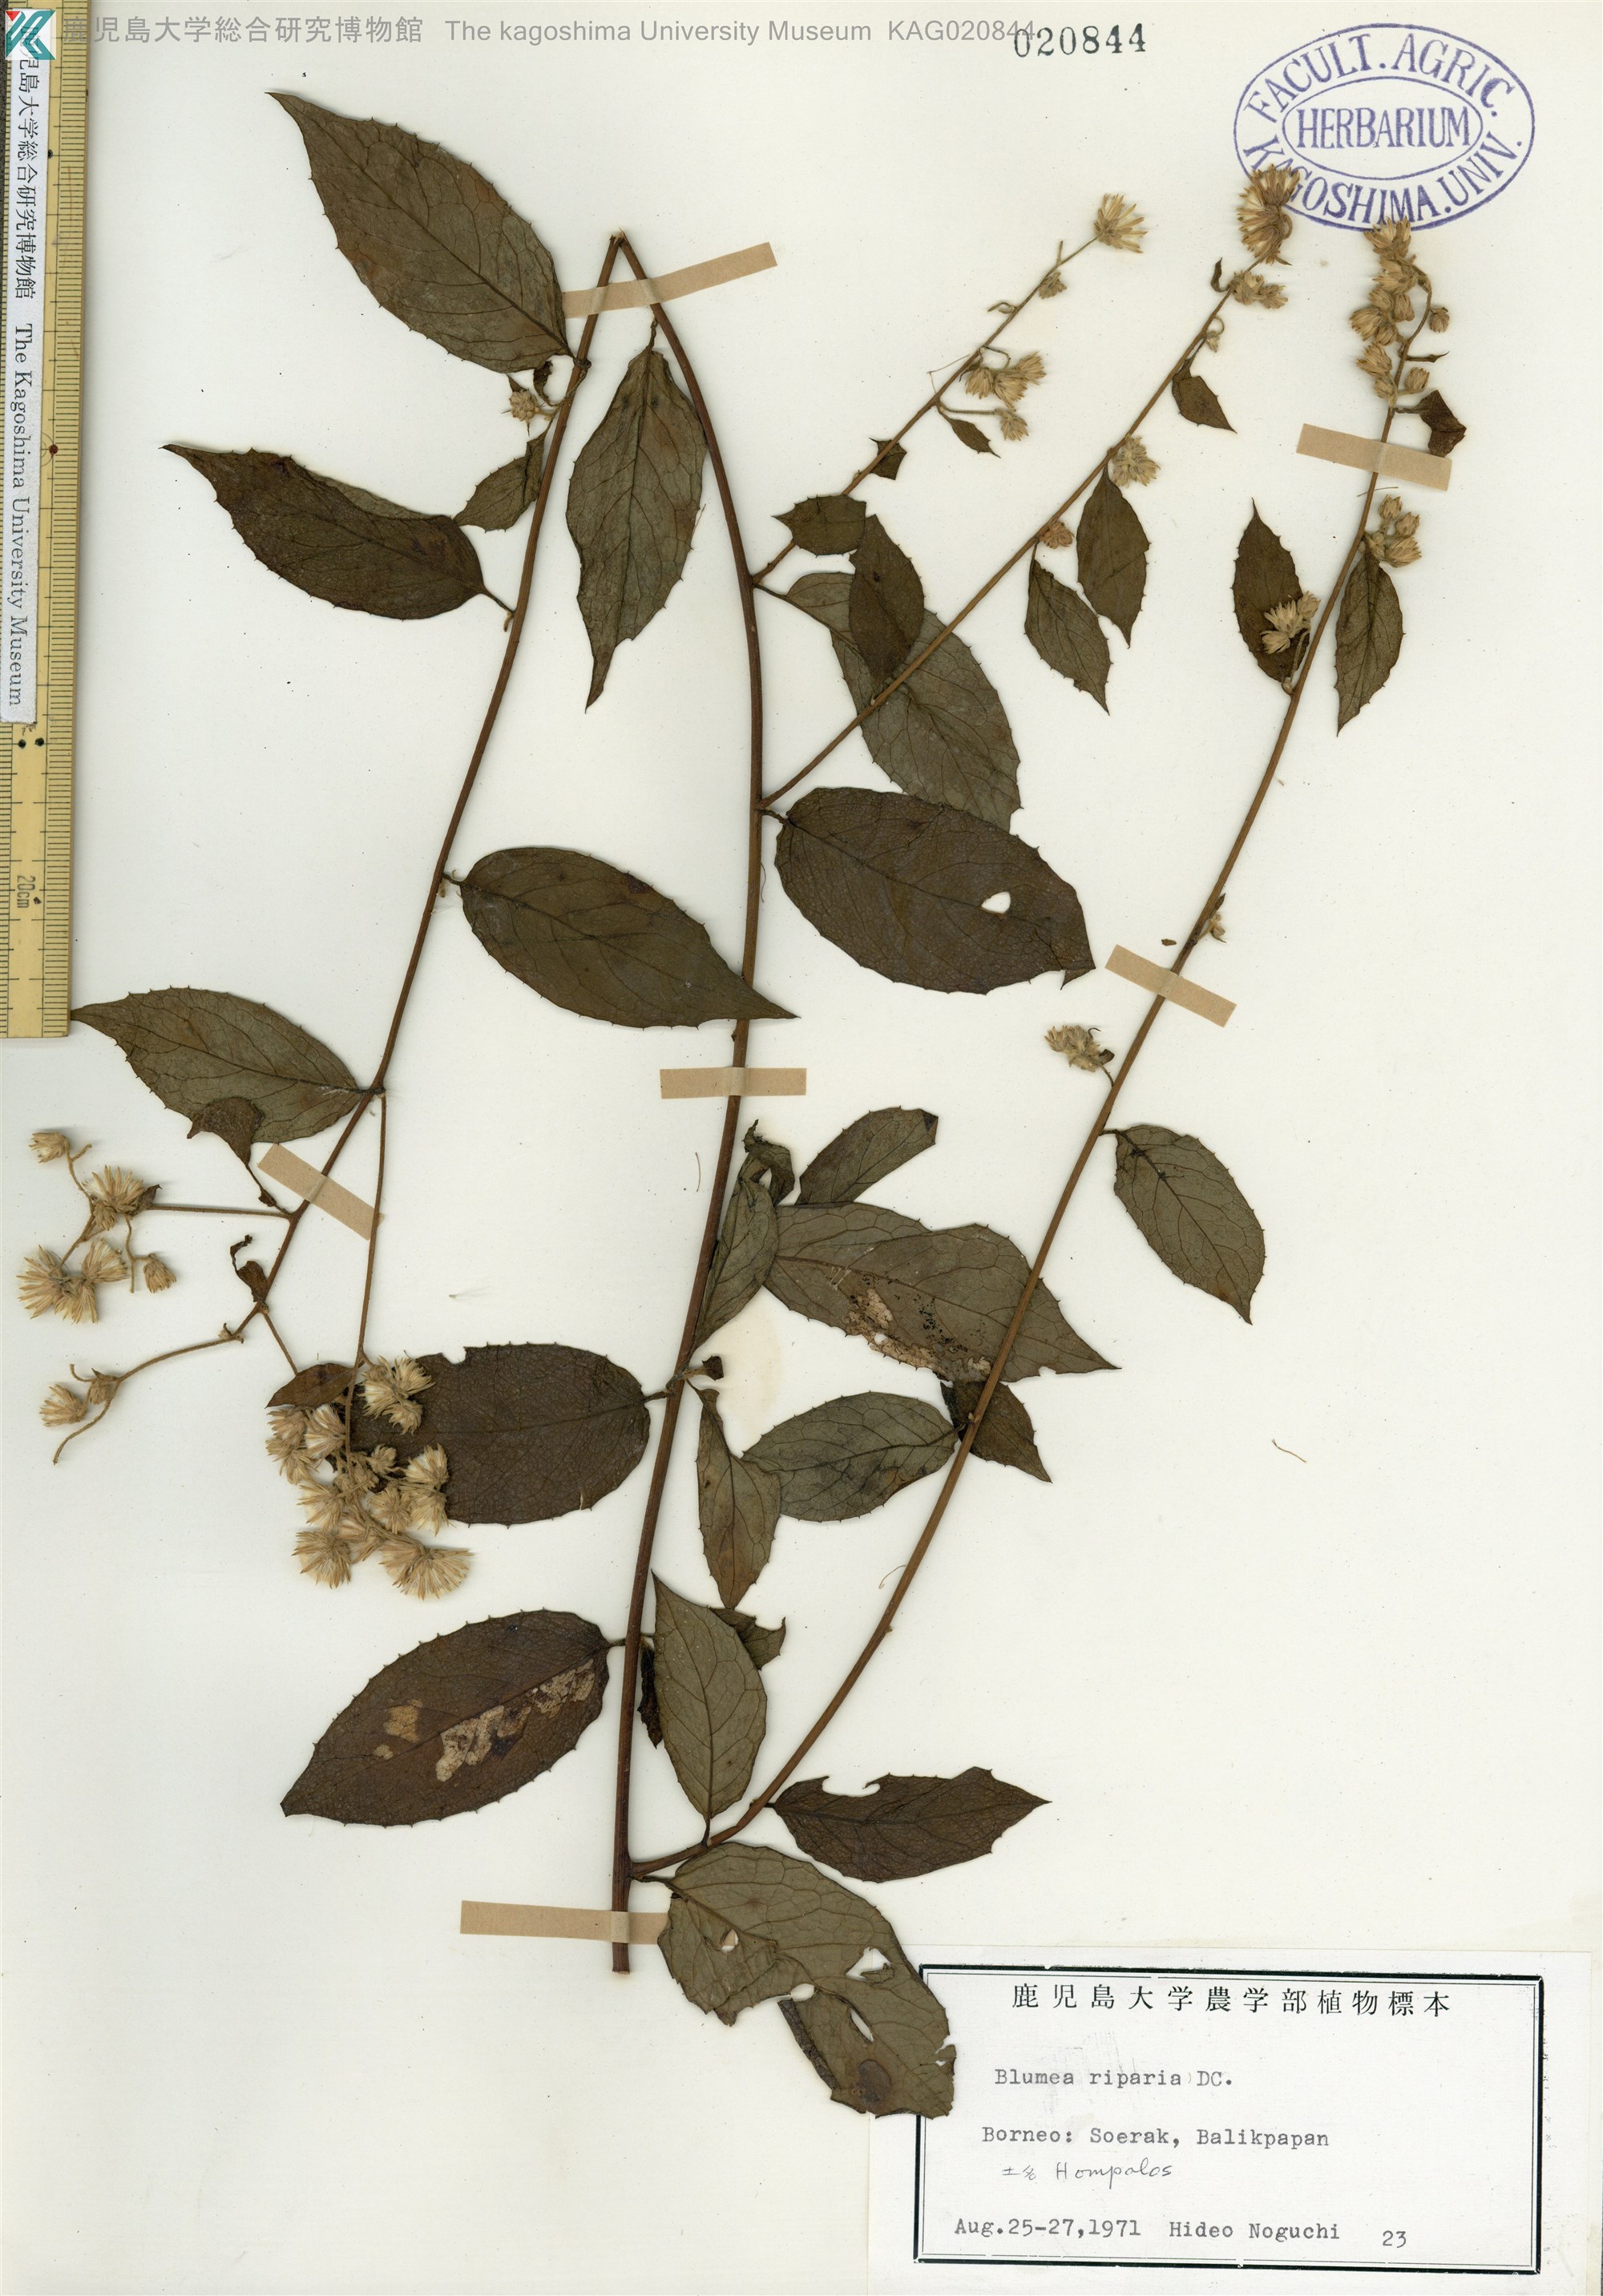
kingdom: Plantae
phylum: Tracheophyta
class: Magnoliopsida
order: Asterales
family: Asteraceae
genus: Blumea
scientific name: Blumea megacephala
